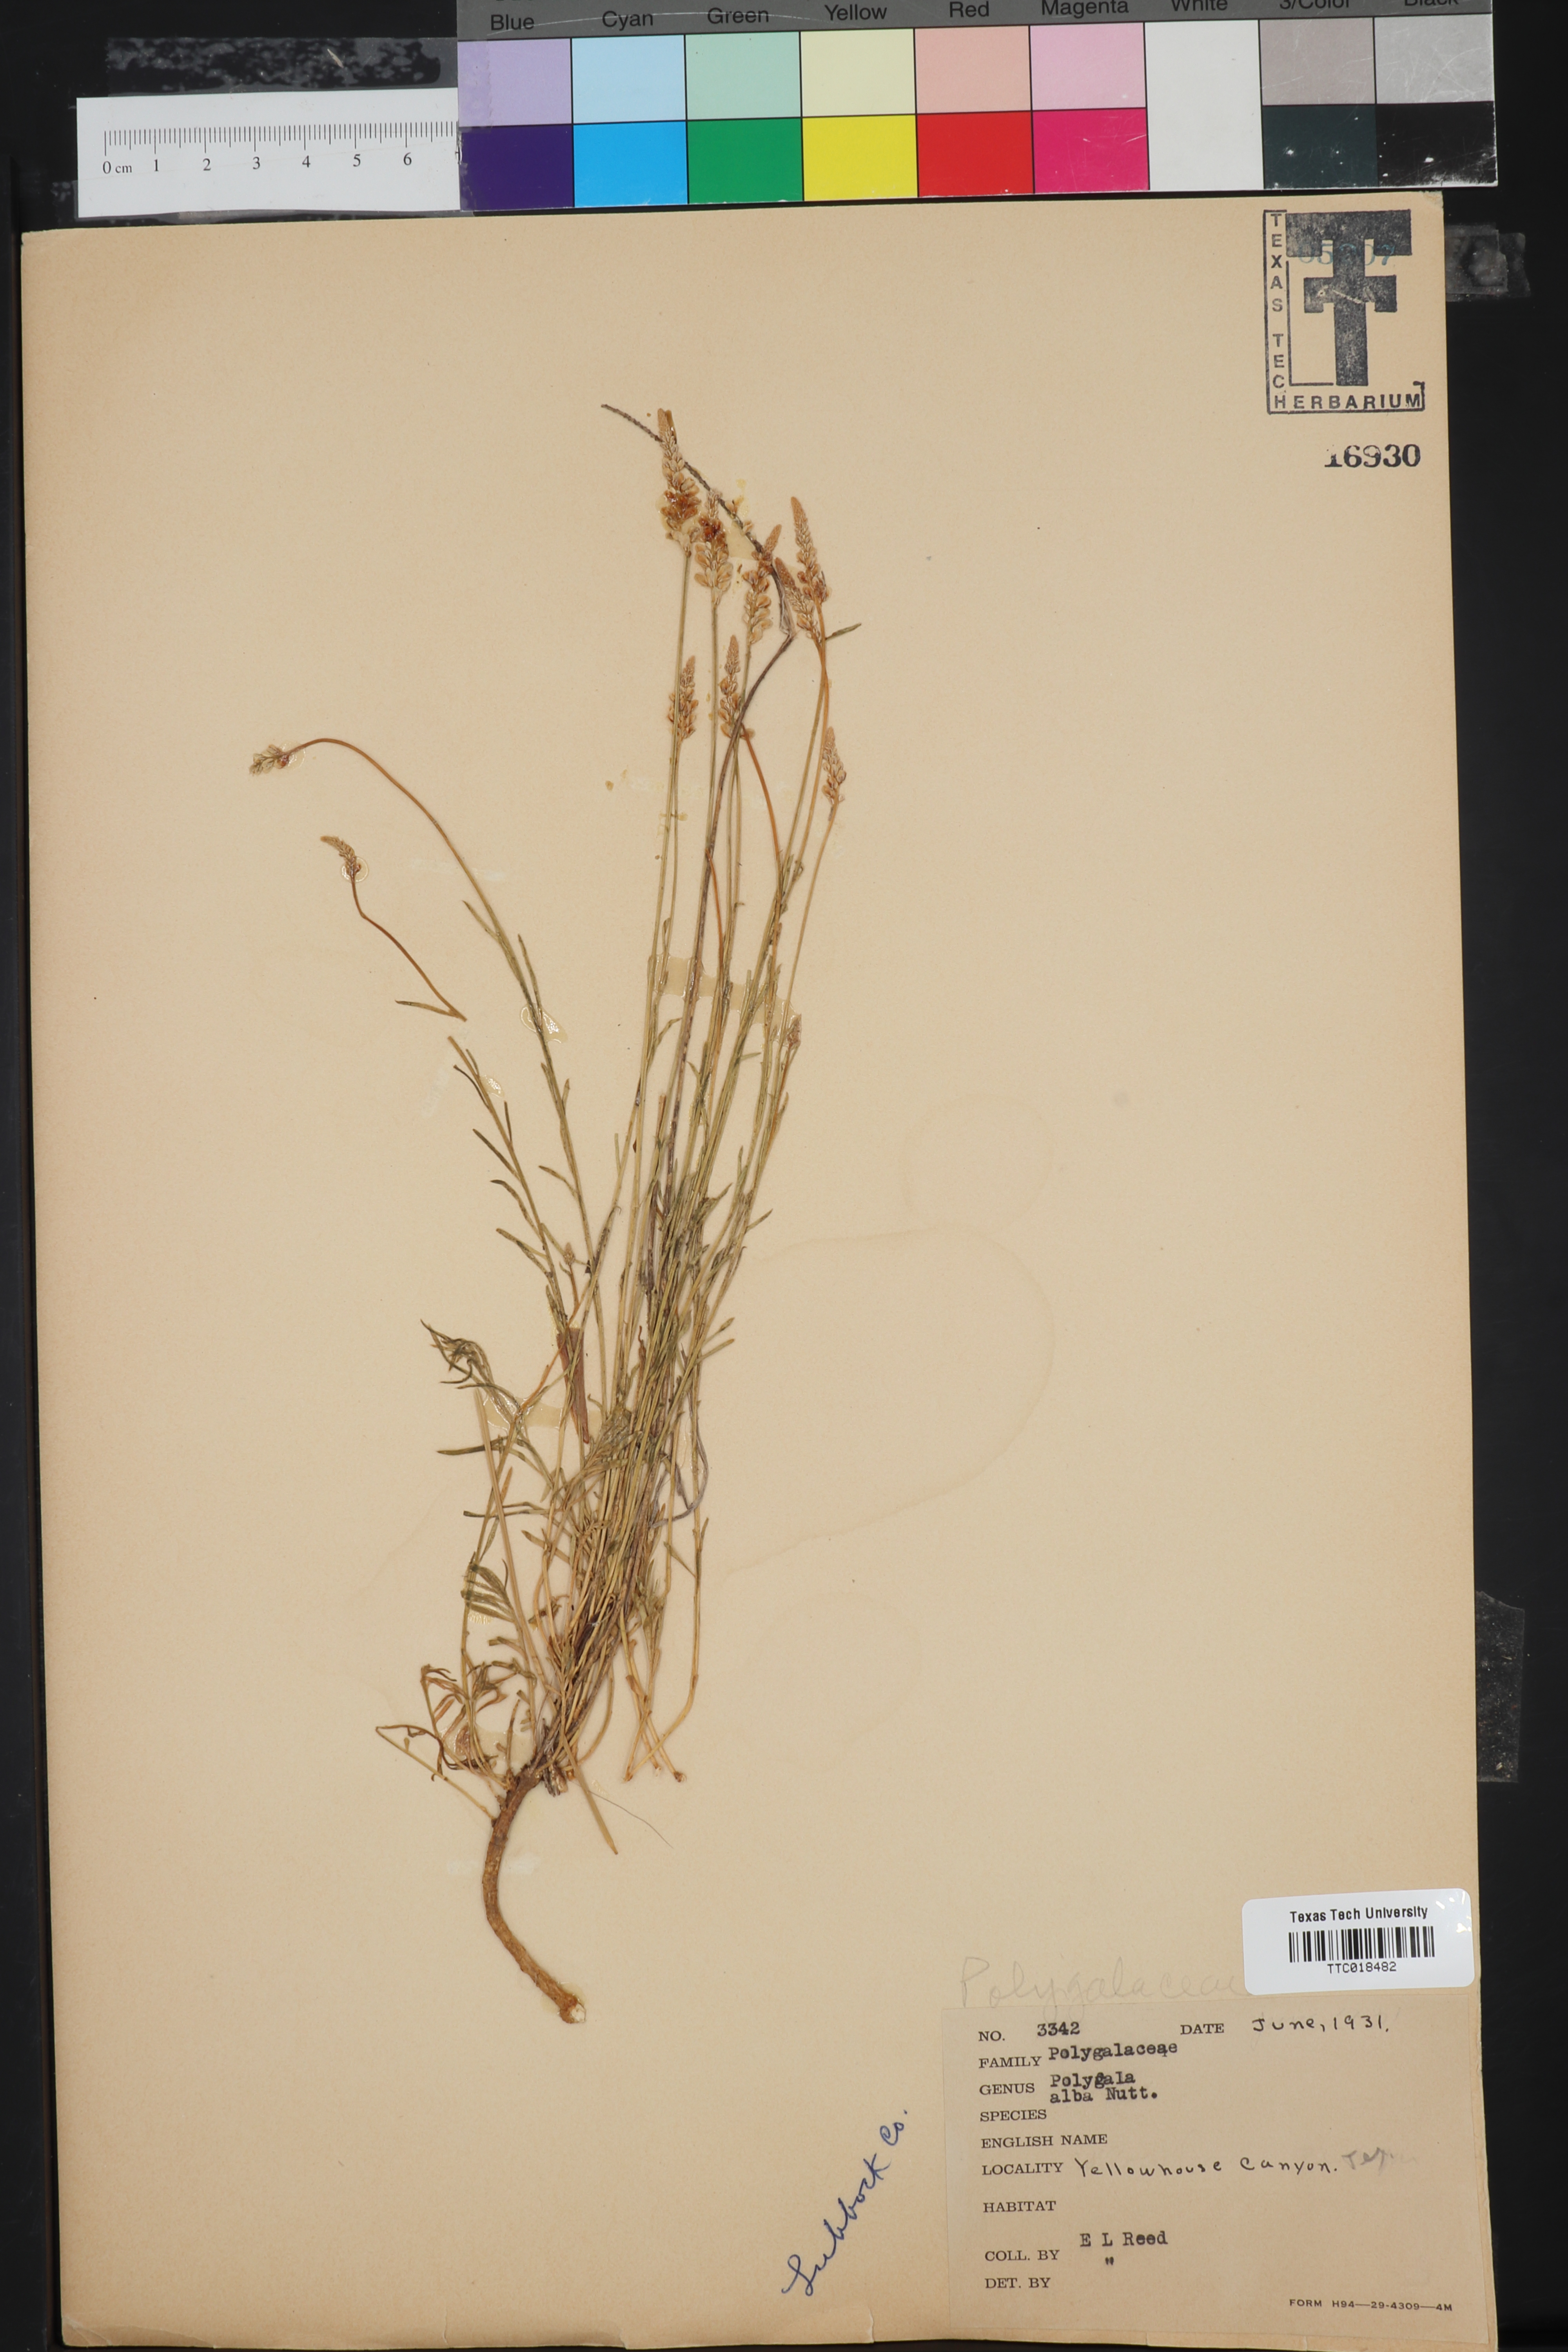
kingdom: Plantae
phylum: Tracheophyta
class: Magnoliopsida
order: Fabales
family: Polygalaceae
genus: Polygala
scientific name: Polygala alba
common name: White milkwort
